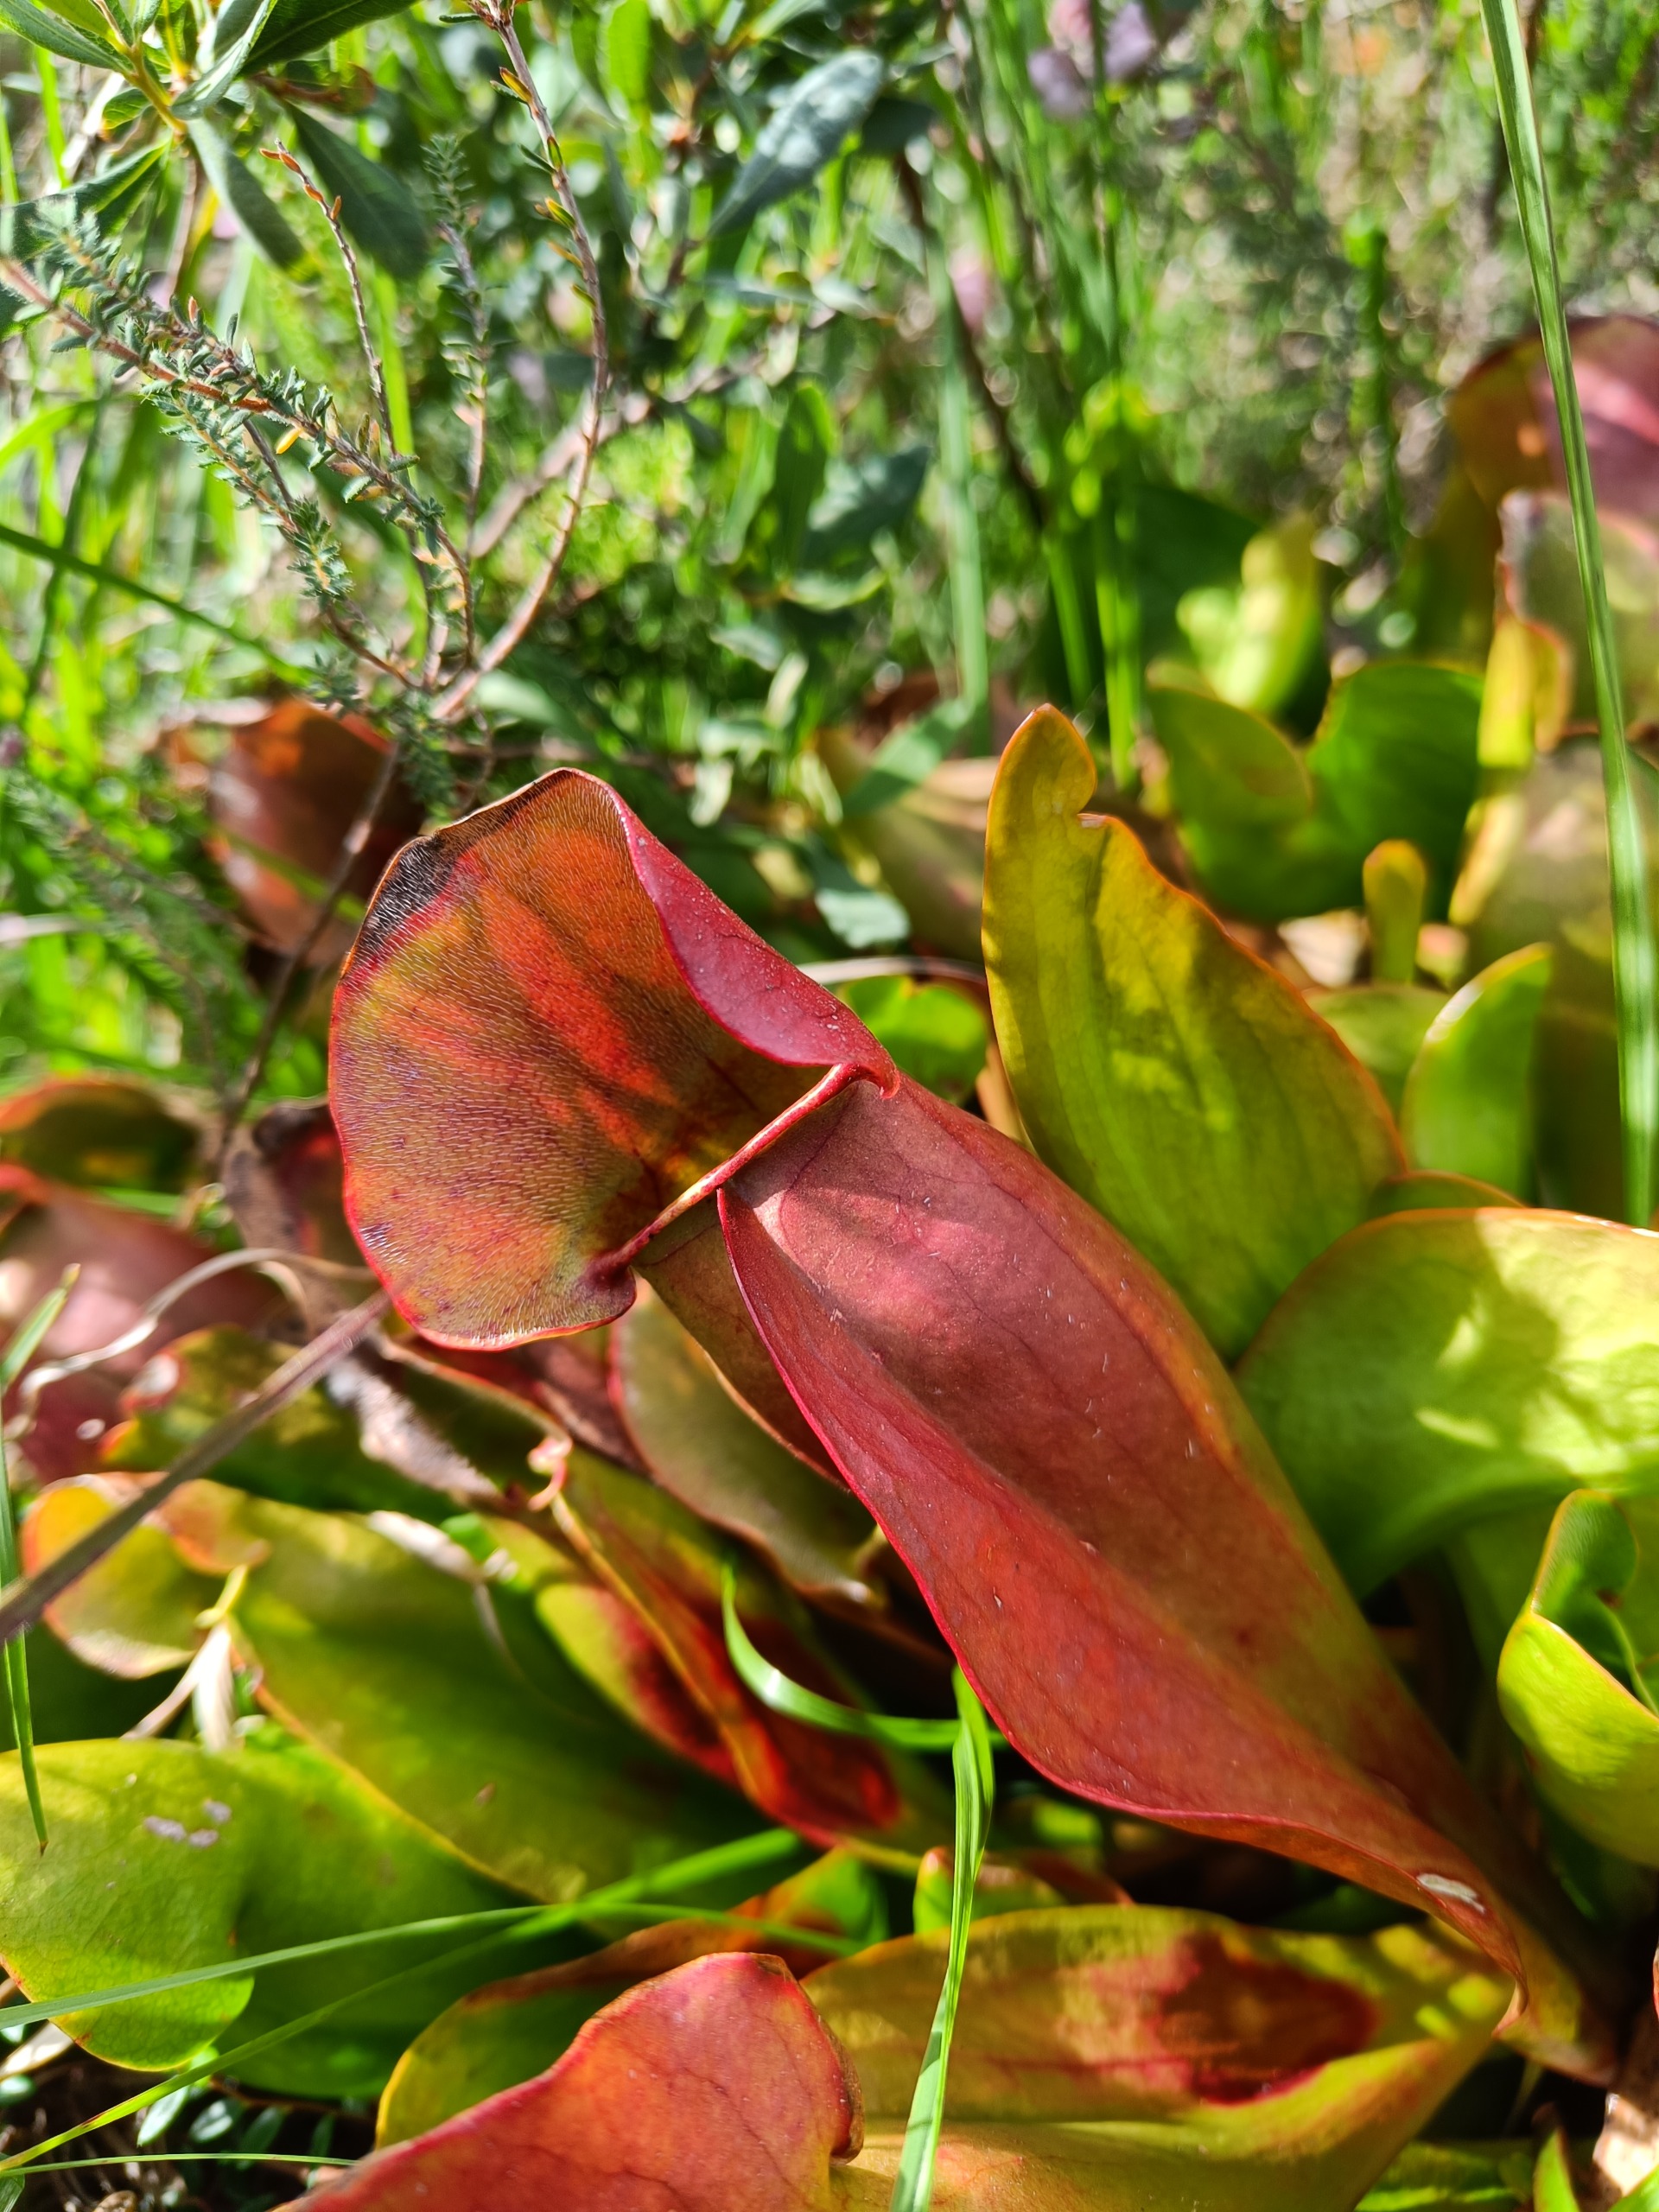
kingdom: Plantae
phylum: Tracheophyta
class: Magnoliopsida
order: Ericales
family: Sarraceniaceae
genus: Sarracenia
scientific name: Sarracenia purpurea
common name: Trompetblad
